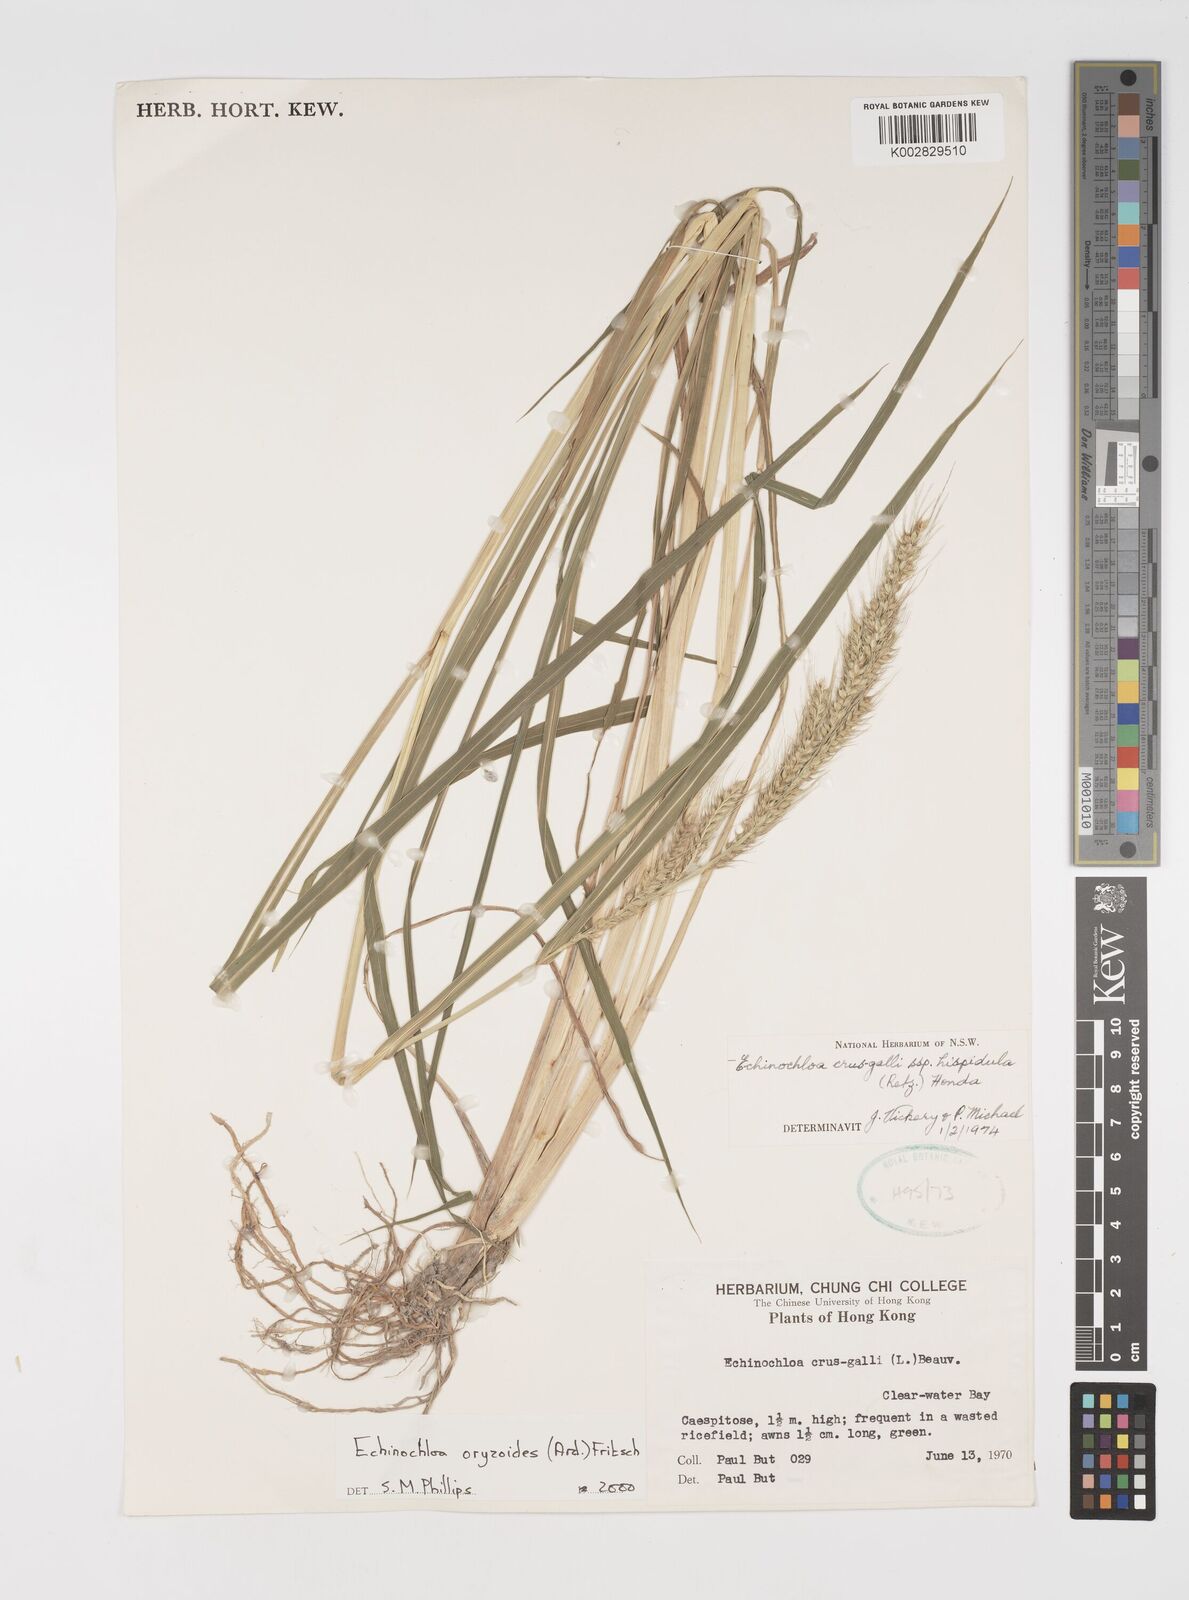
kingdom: Plantae
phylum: Tracheophyta
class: Liliopsida
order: Poales
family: Poaceae
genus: Echinochloa
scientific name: Echinochloa oryzoides
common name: Early water grass
